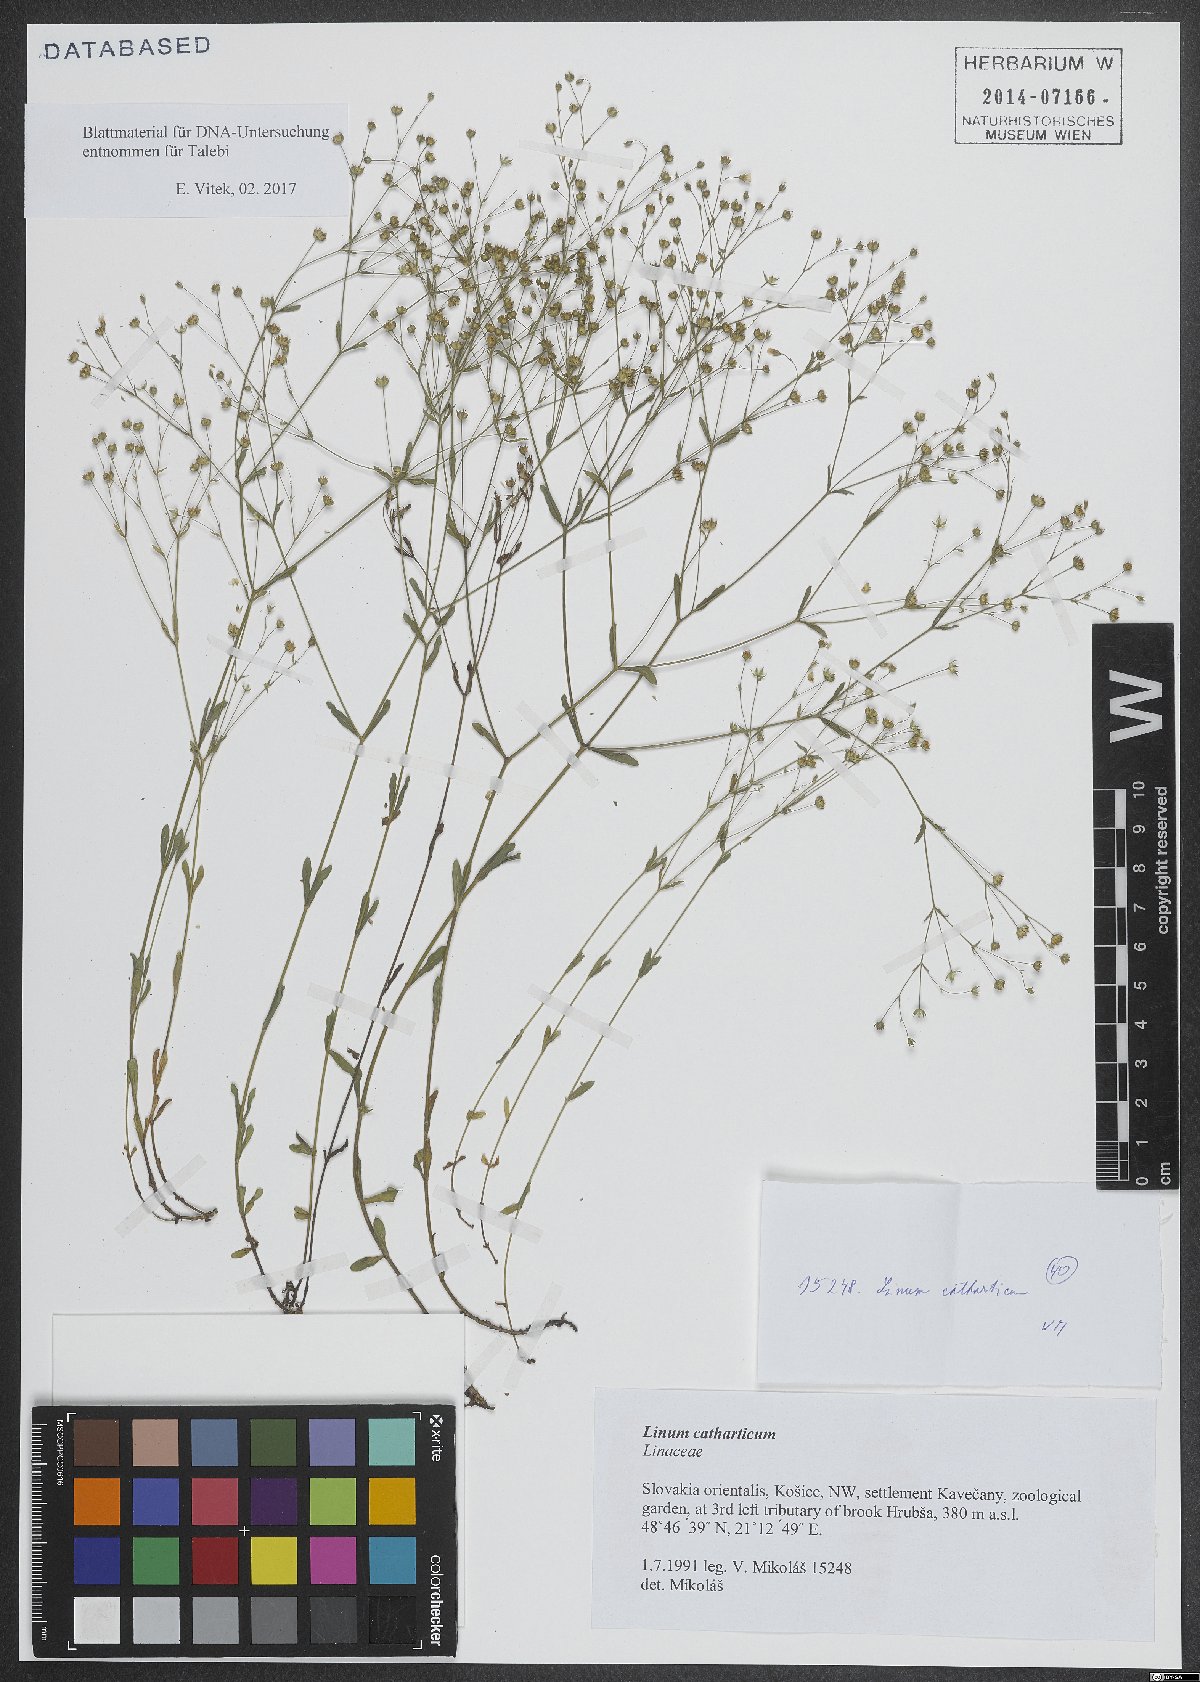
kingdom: Plantae
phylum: Tracheophyta
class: Magnoliopsida
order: Malpighiales
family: Linaceae
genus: Linum
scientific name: Linum catharticum
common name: Fairy flax
